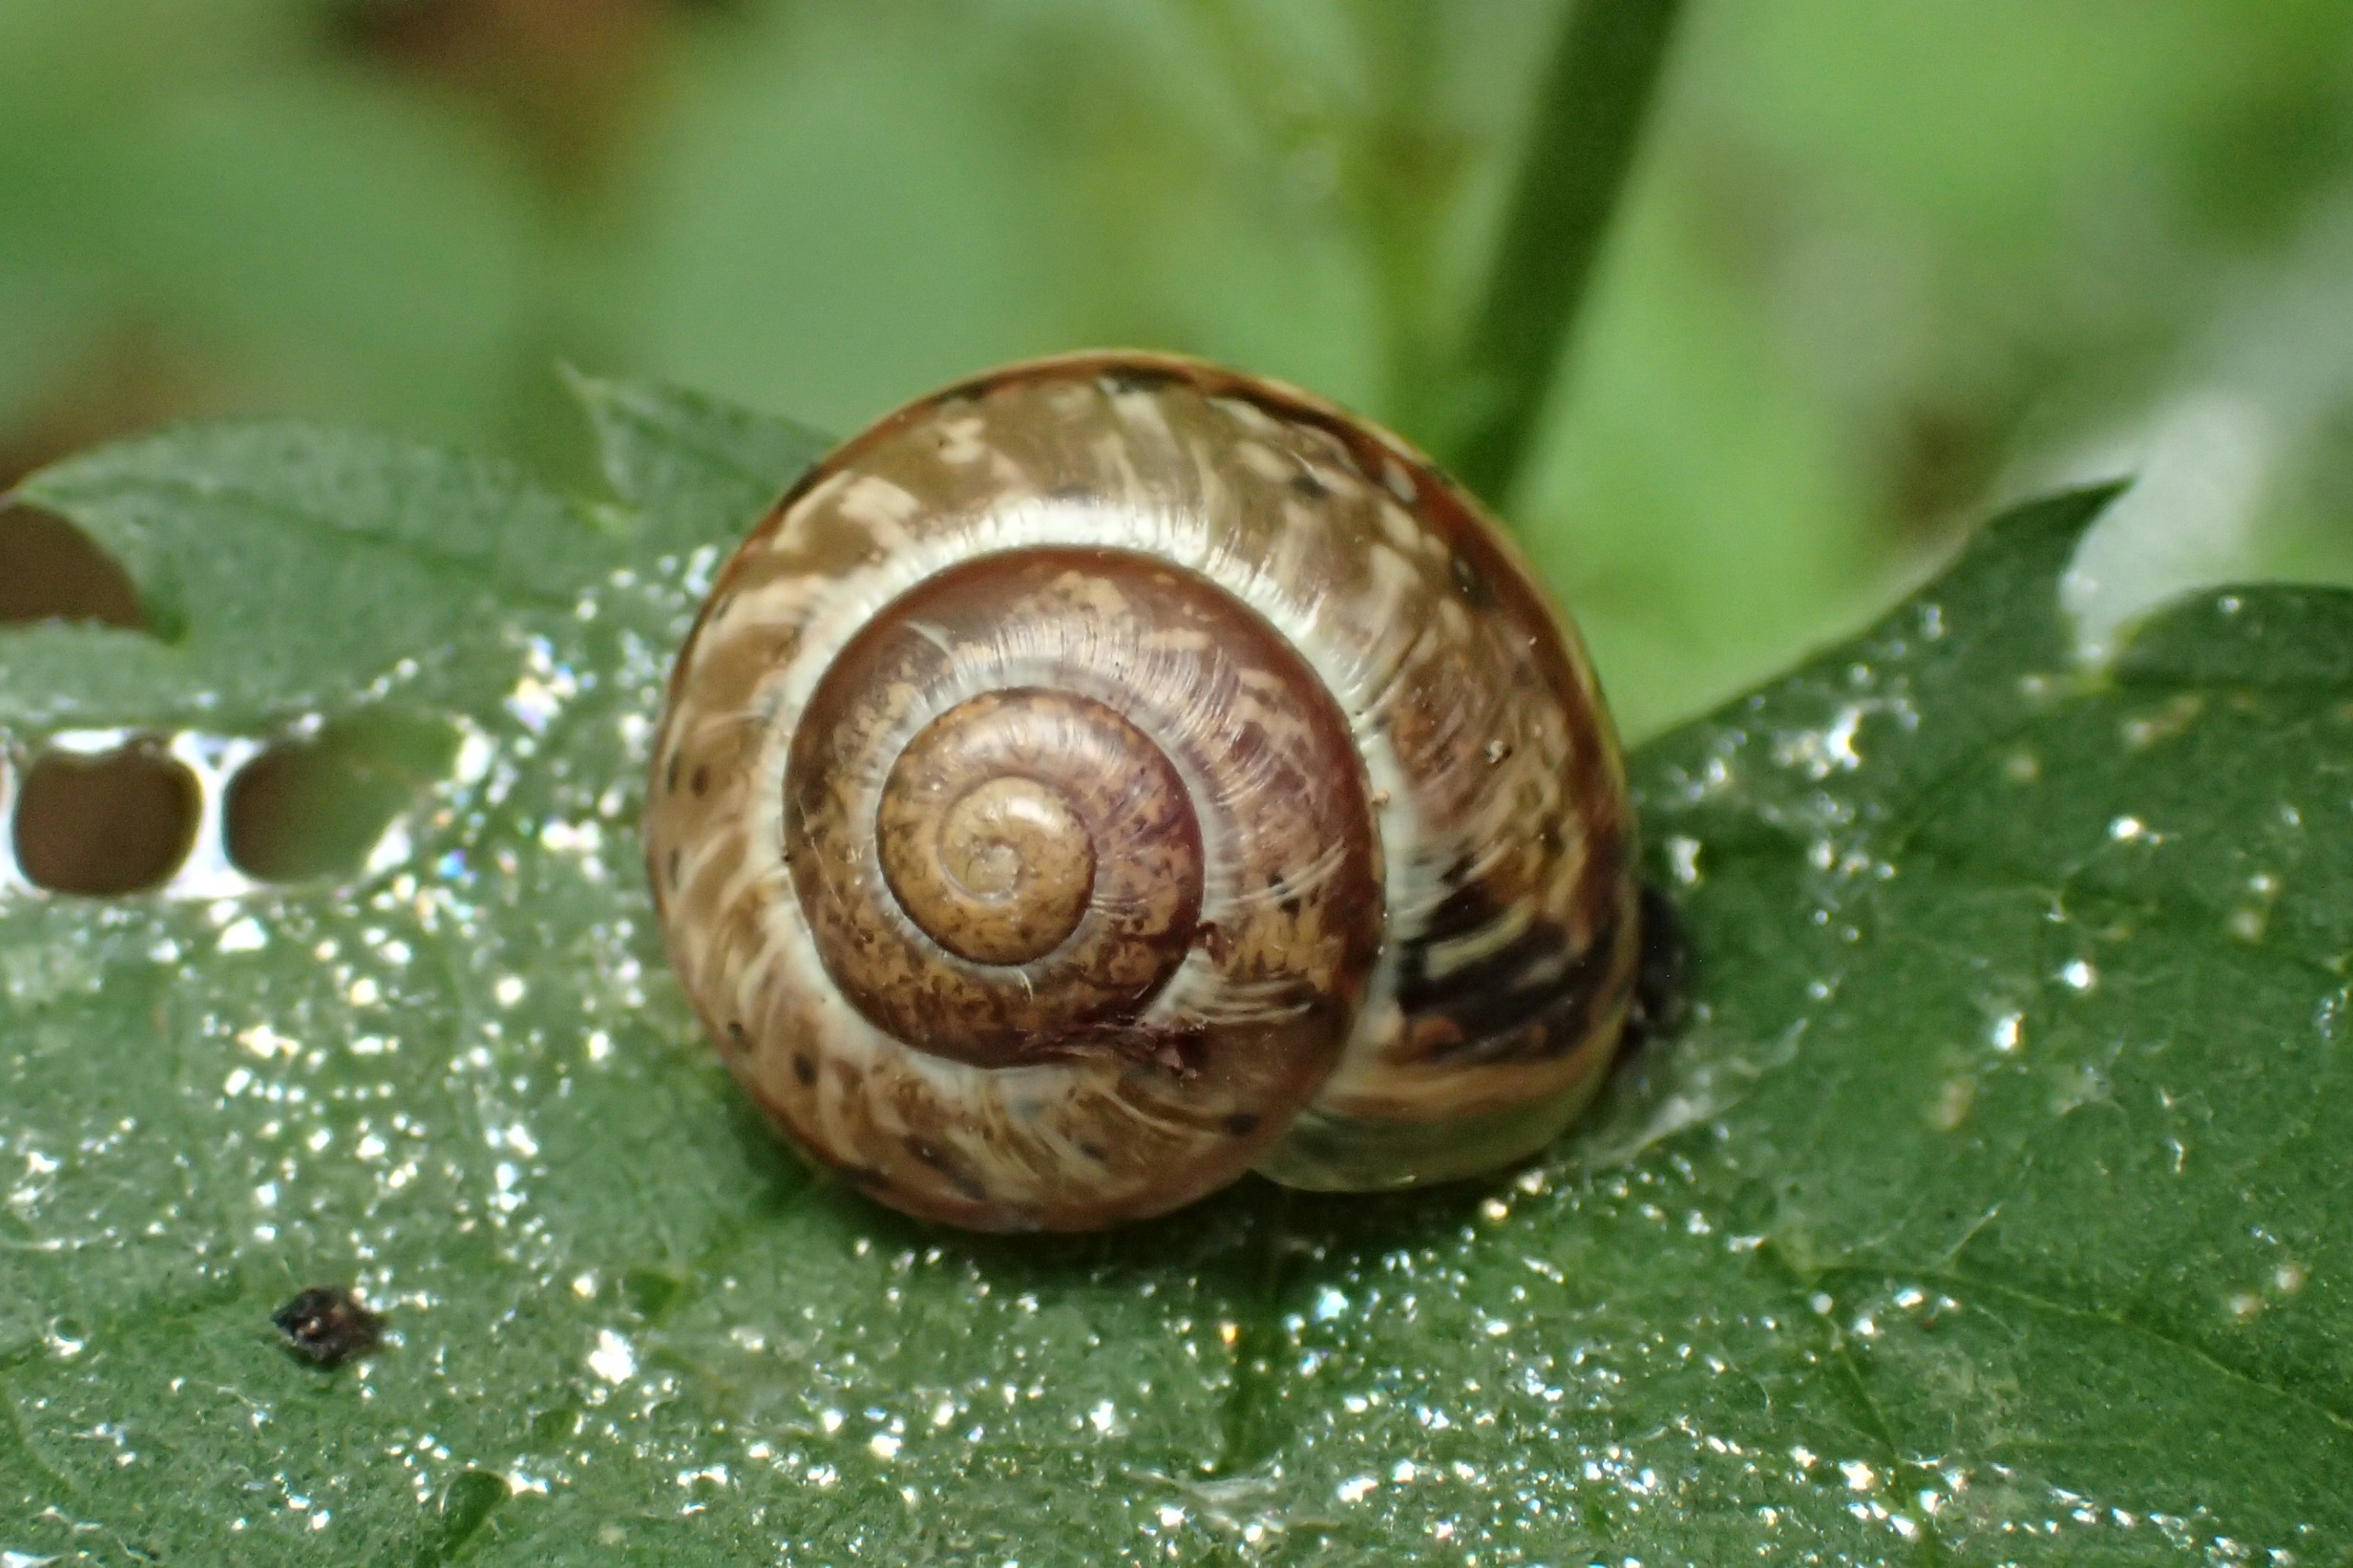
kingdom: Animalia
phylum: Mollusca
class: Gastropoda
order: Stylommatophora
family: Helicidae
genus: Arianta
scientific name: Arianta arbustorum
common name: Kratsnegl
